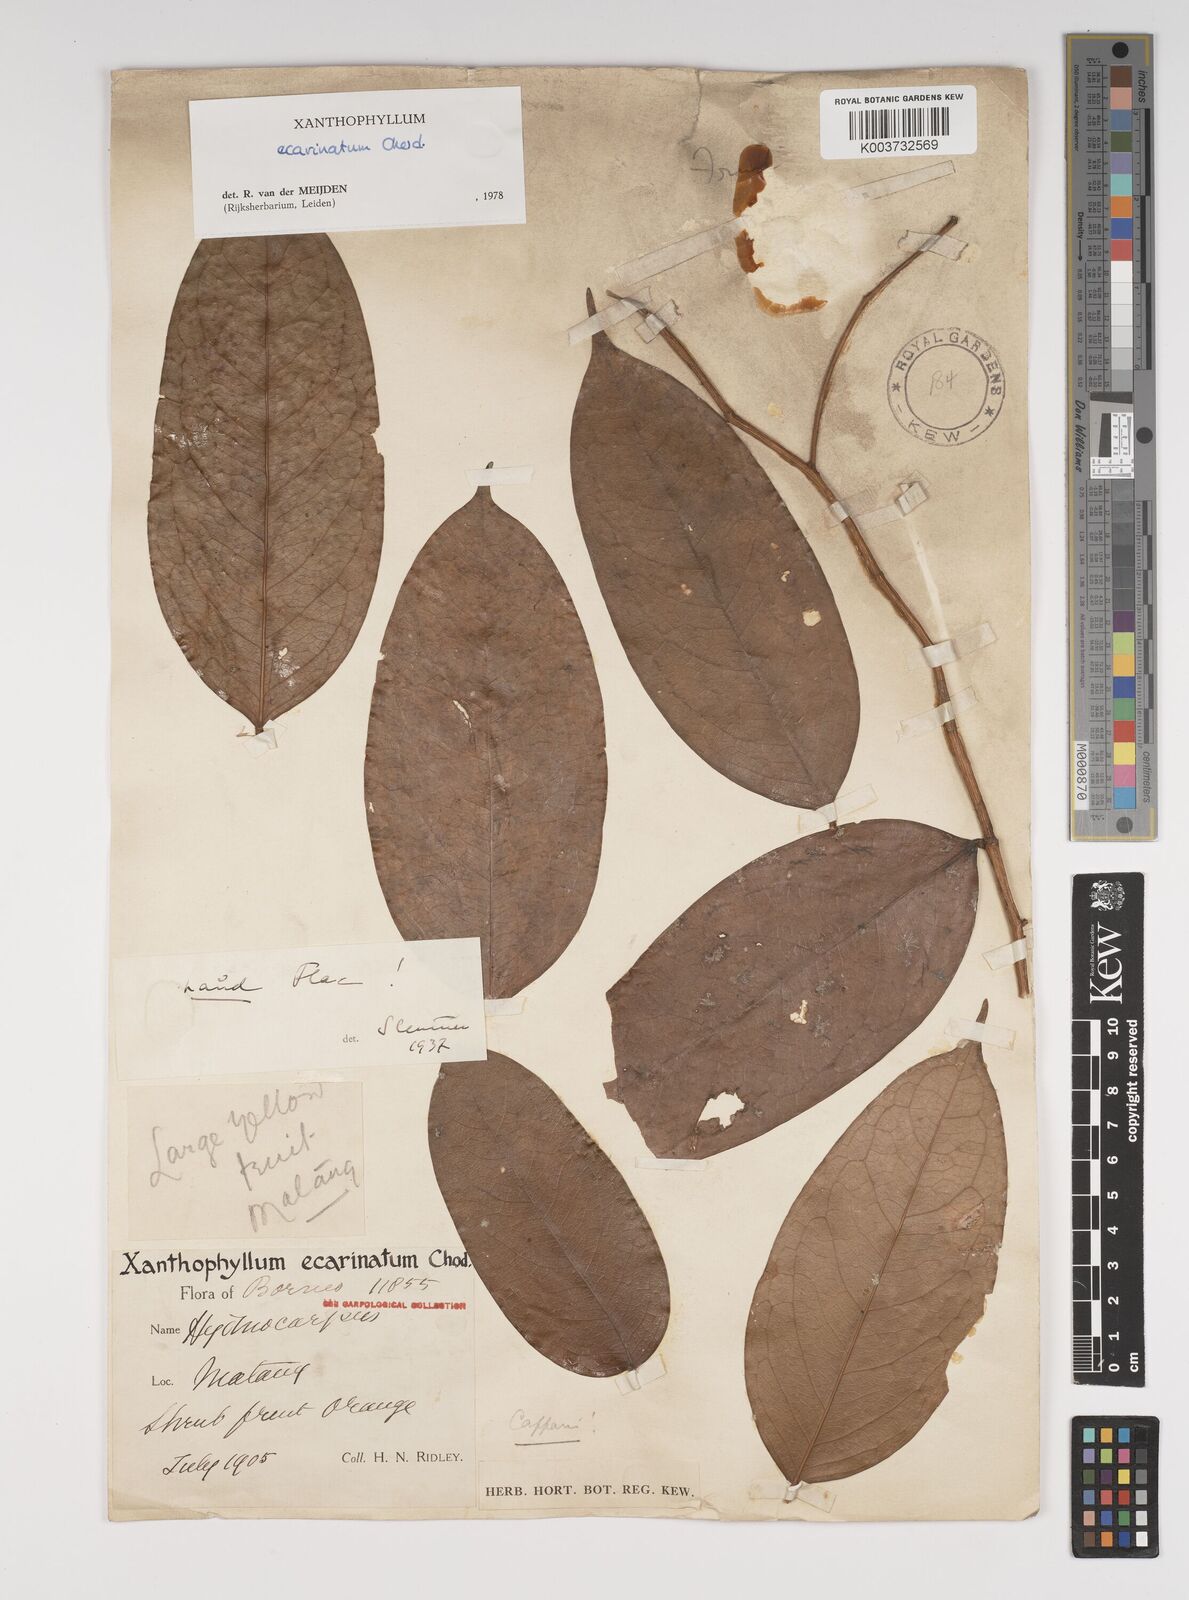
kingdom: Plantae
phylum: Tracheophyta
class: Magnoliopsida
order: Fabales
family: Polygalaceae
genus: Xanthophyllum
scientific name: Xanthophyllum ecarinatum
